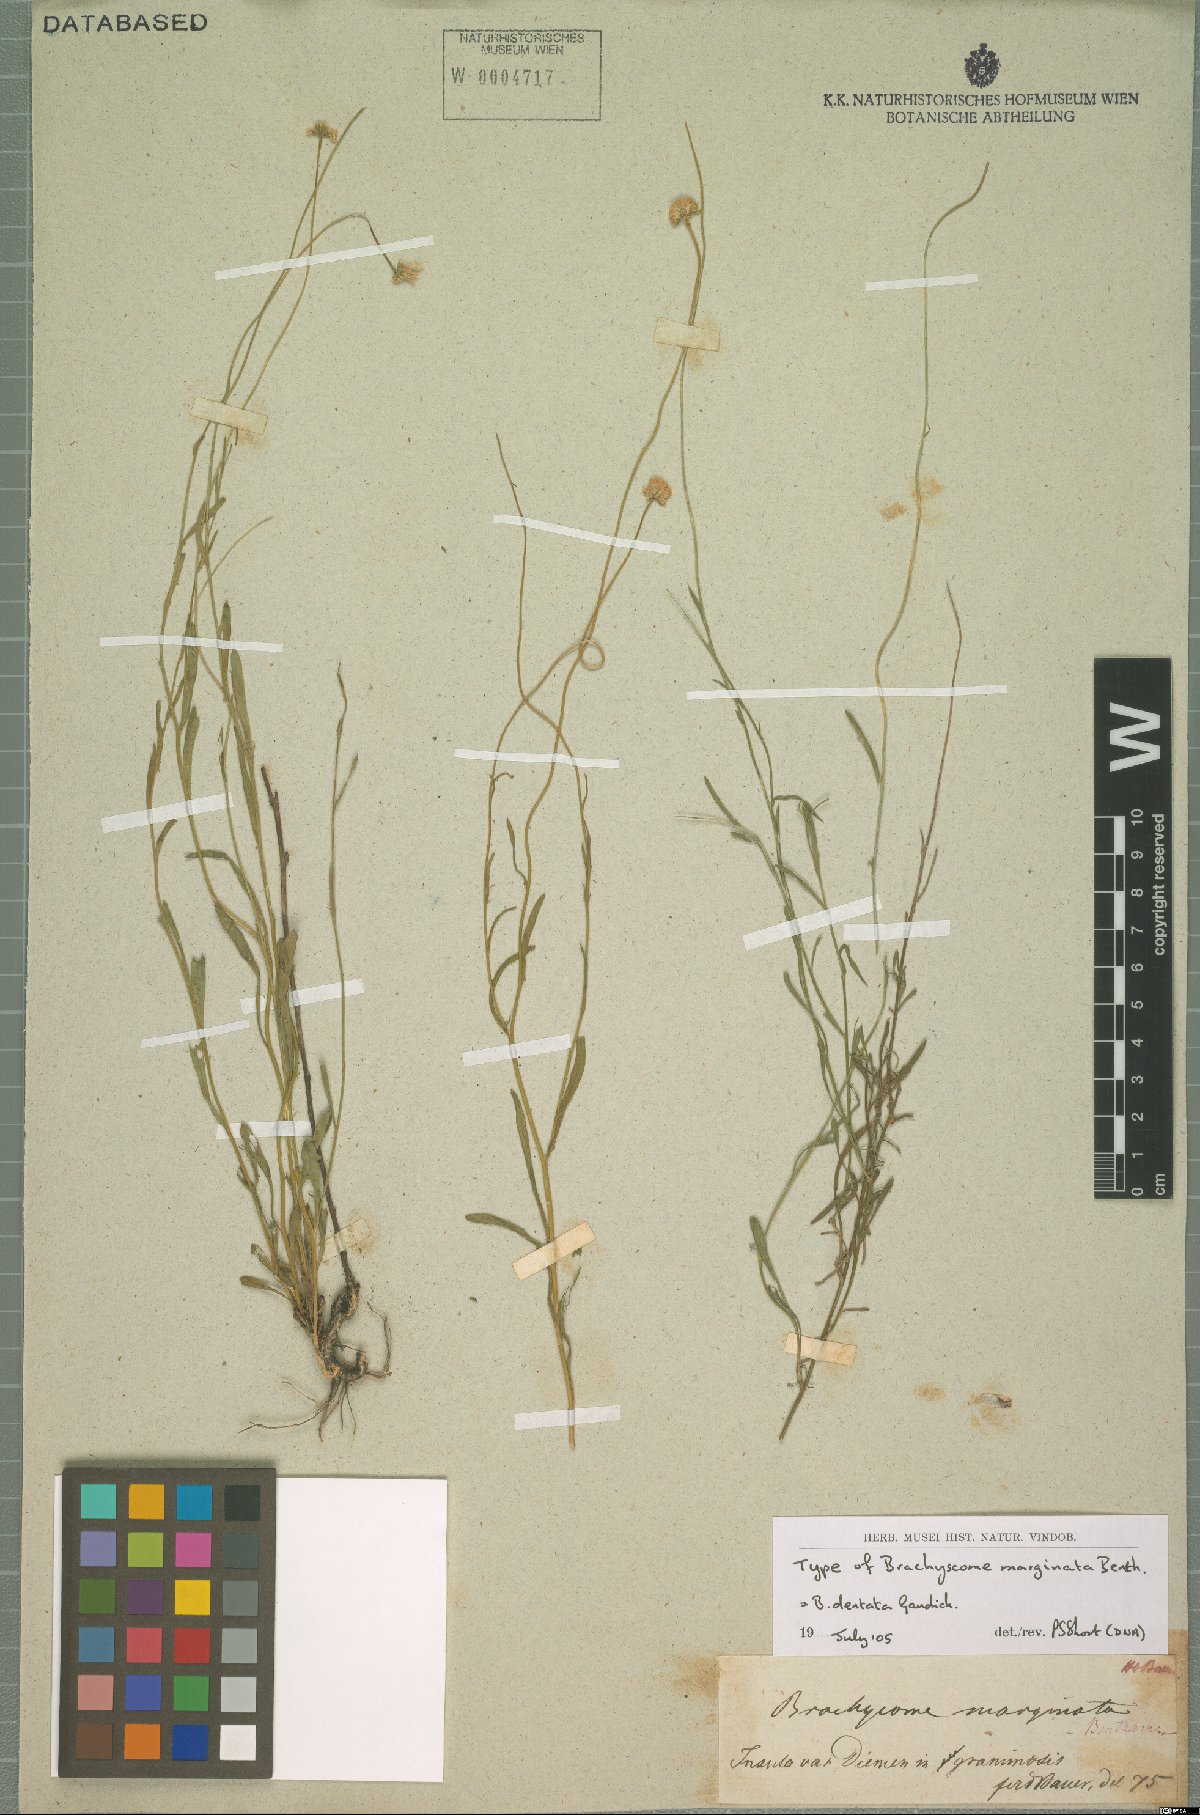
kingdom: Plantae
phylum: Tracheophyta
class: Magnoliopsida
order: Asterales
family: Asteraceae
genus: Vittadinia
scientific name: Vittadinia dentata
